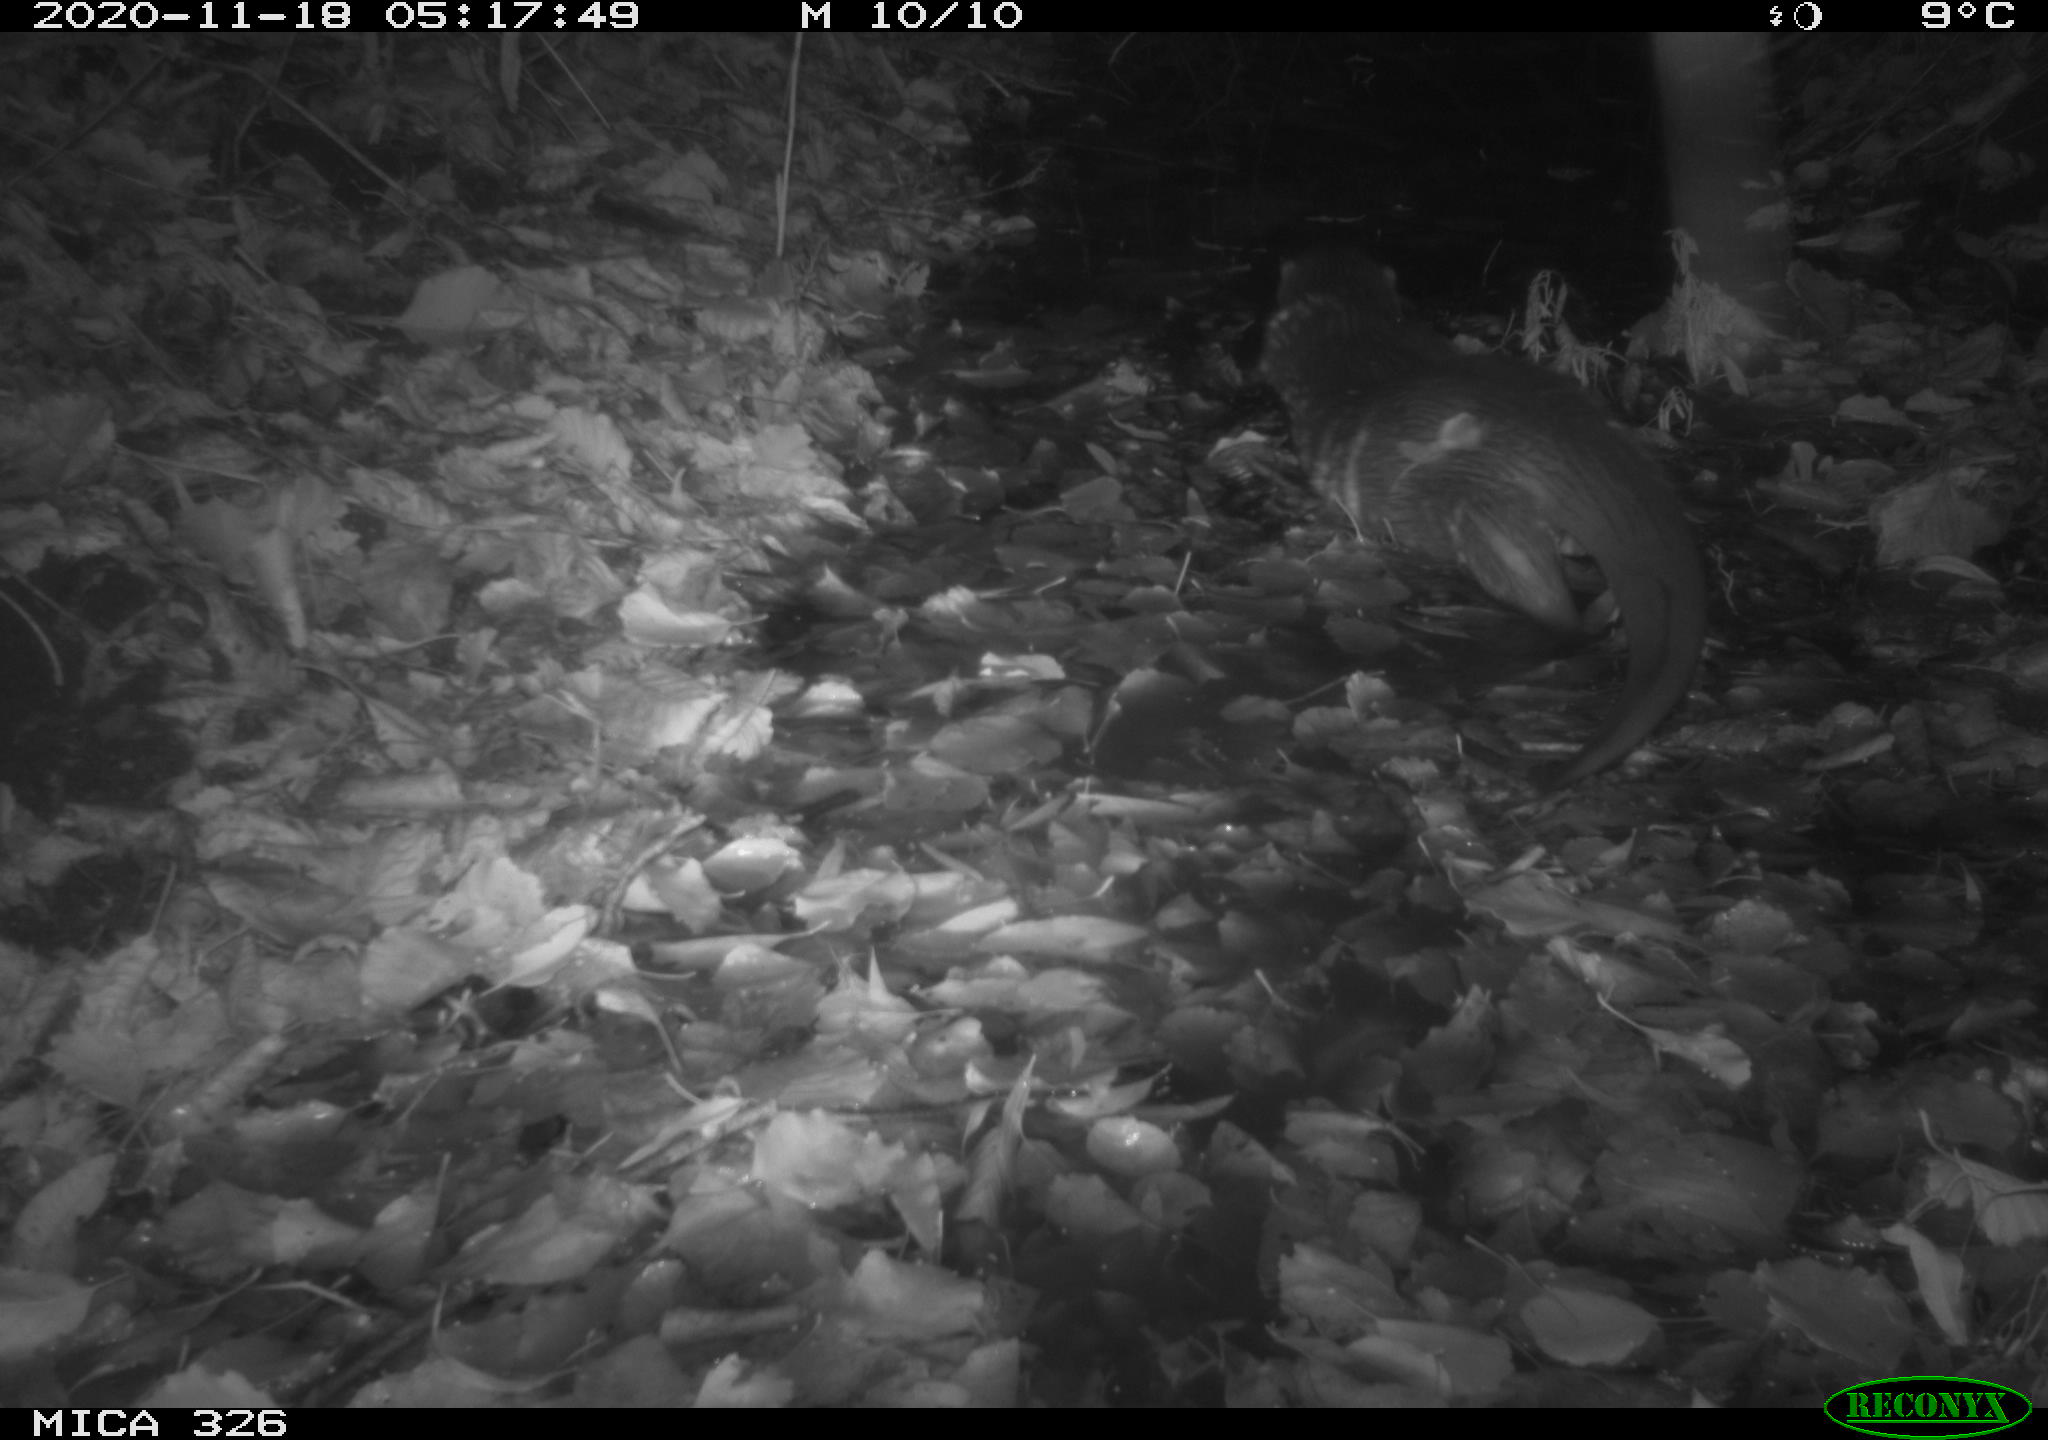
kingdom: Animalia
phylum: Chordata
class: Mammalia
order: Carnivora
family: Mustelidae
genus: Lutra
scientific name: Lutra lutra
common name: European otter
